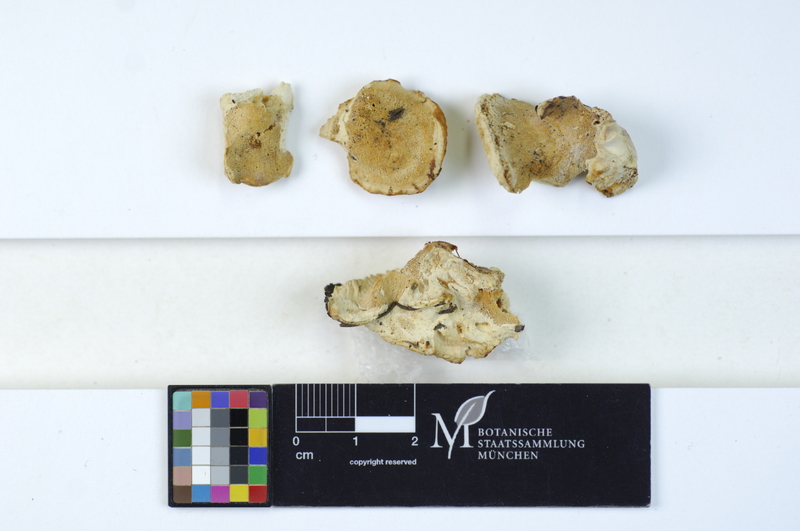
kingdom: Fungi
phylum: Basidiomycota
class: Agaricomycetes
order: Polyporales
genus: Amaropostia
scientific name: Amaropostia stiptica
